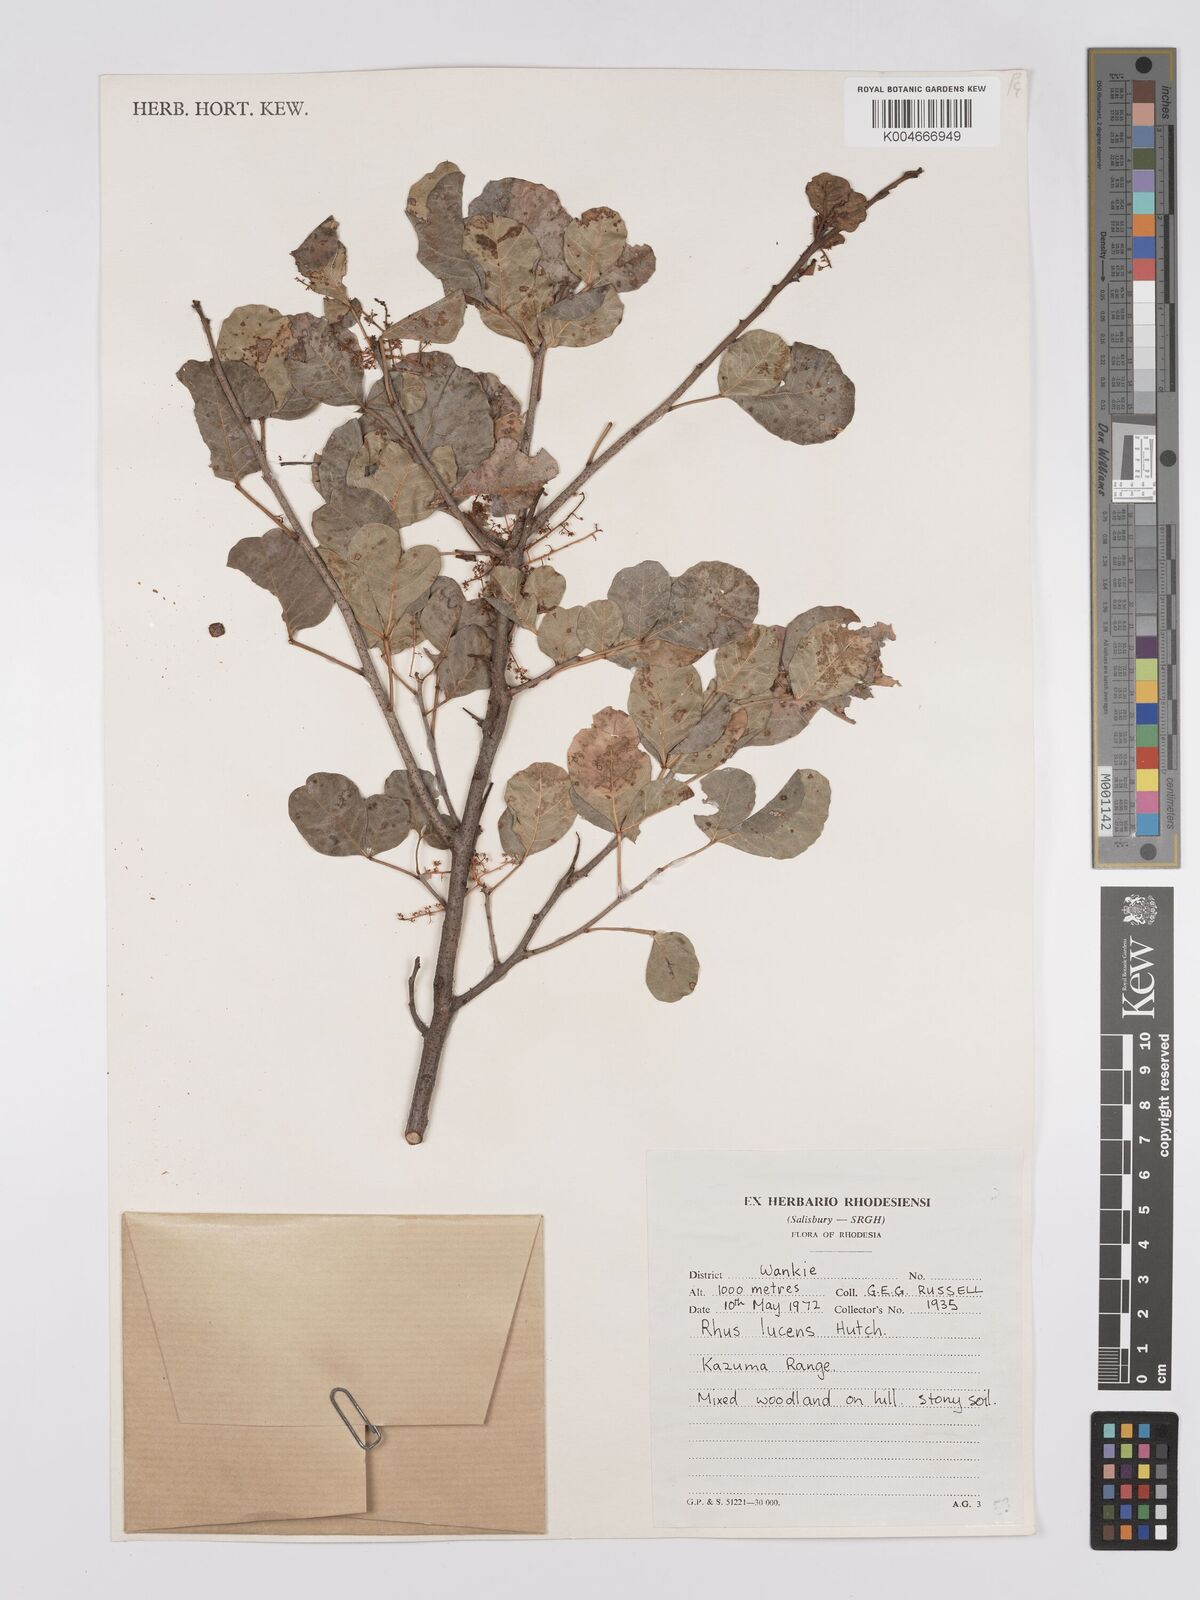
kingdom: Plantae
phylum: Tracheophyta
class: Magnoliopsida
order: Sapindales
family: Anacardiaceae
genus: Searsia
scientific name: Searsia lucens
